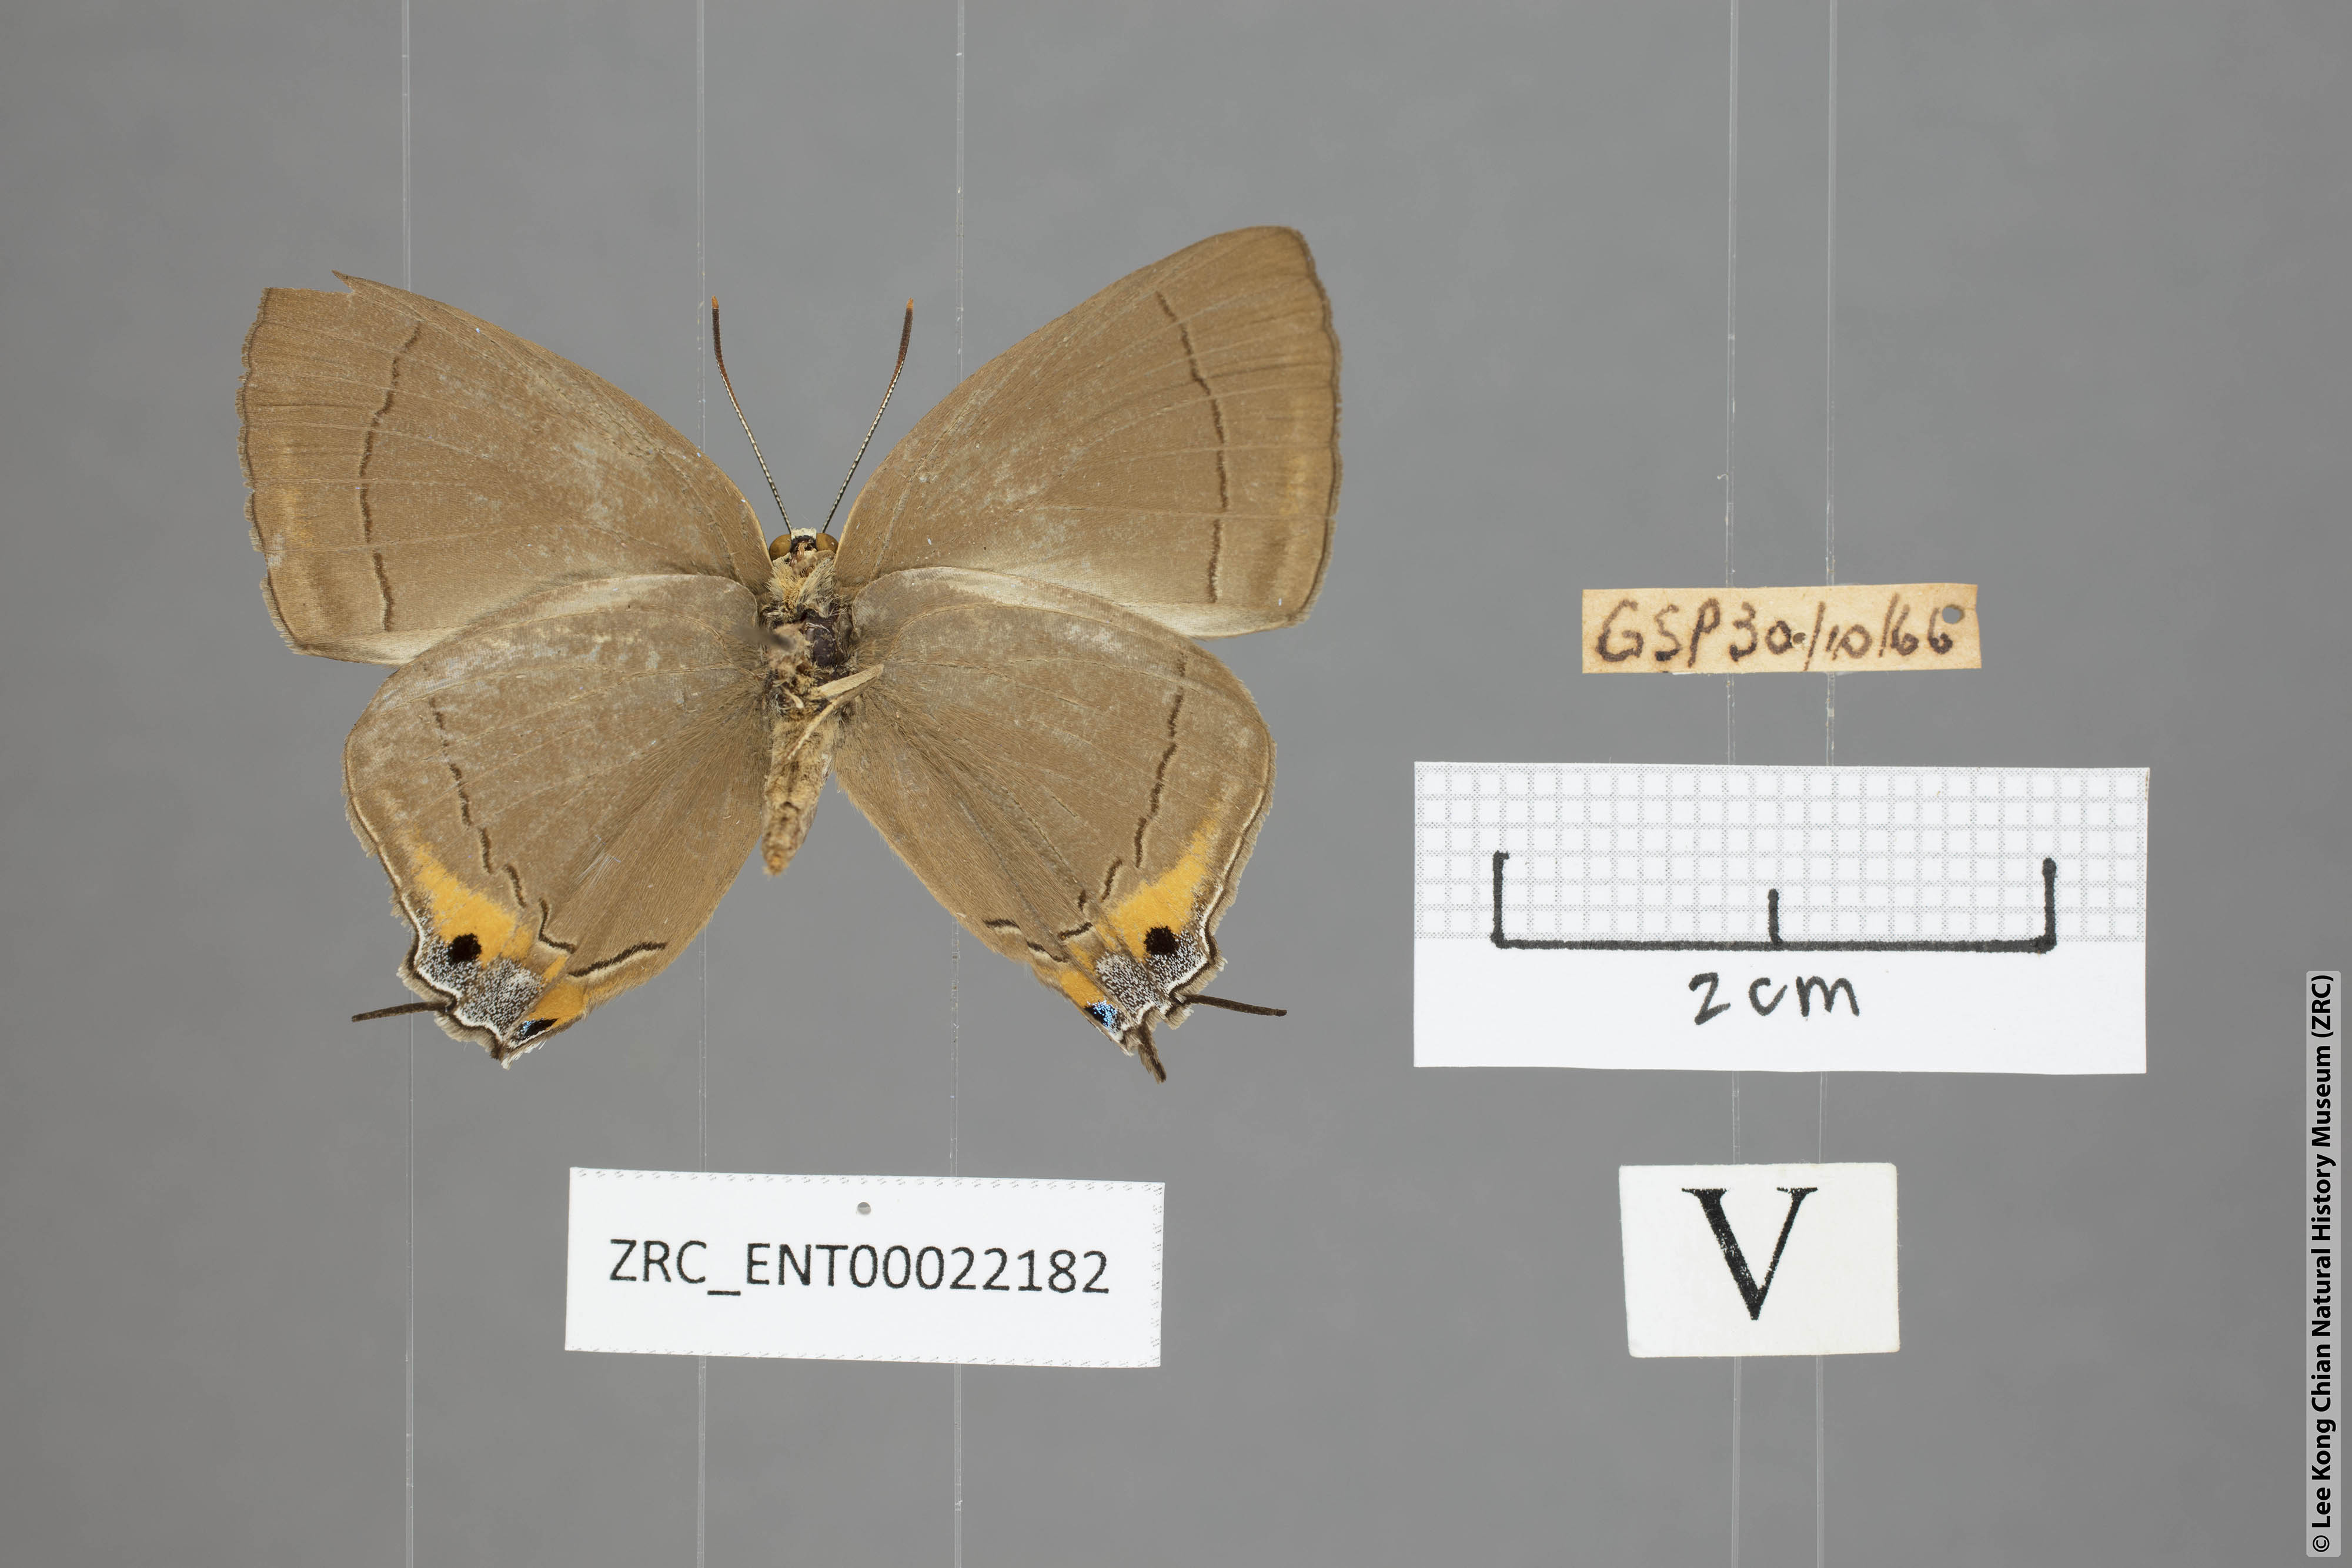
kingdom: Animalia
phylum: Arthropoda
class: Insecta
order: Lepidoptera
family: Lycaenidae
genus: Tajuria
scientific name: Tajuria deudaix
